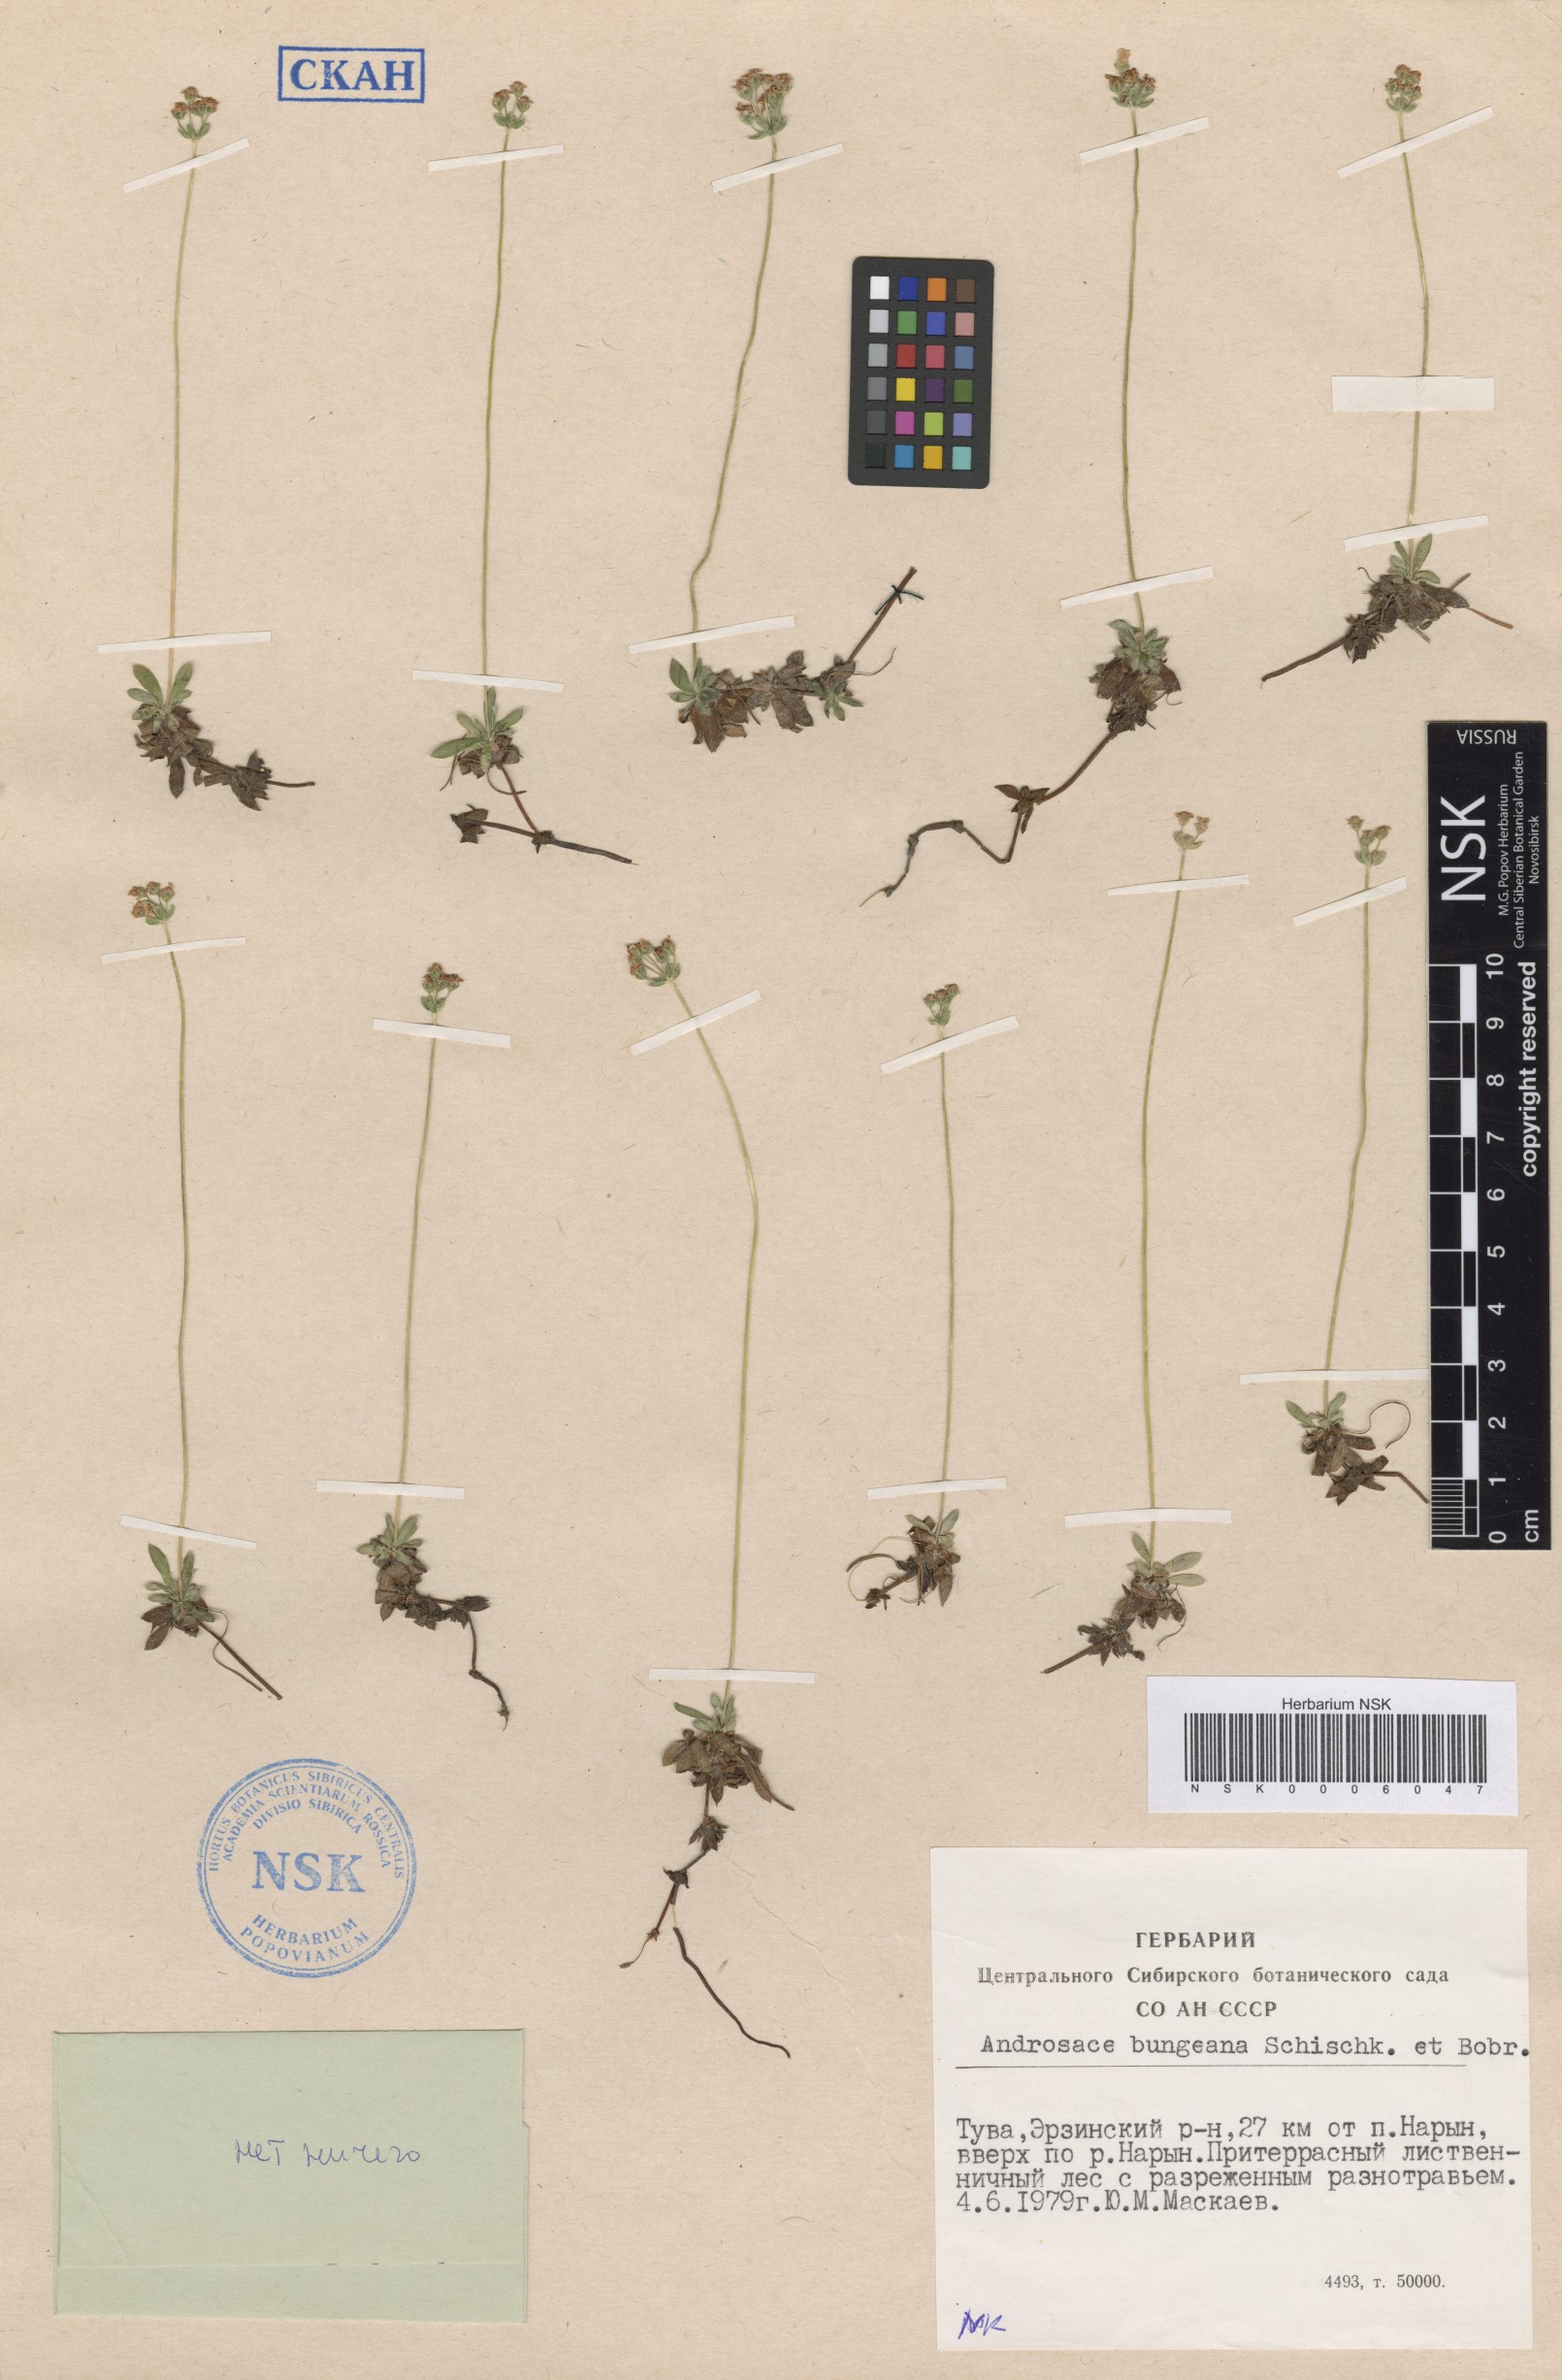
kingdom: Plantae
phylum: Tracheophyta
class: Magnoliopsida
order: Ericales
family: Primulaceae
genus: Androsace
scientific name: Androsace bungeana
